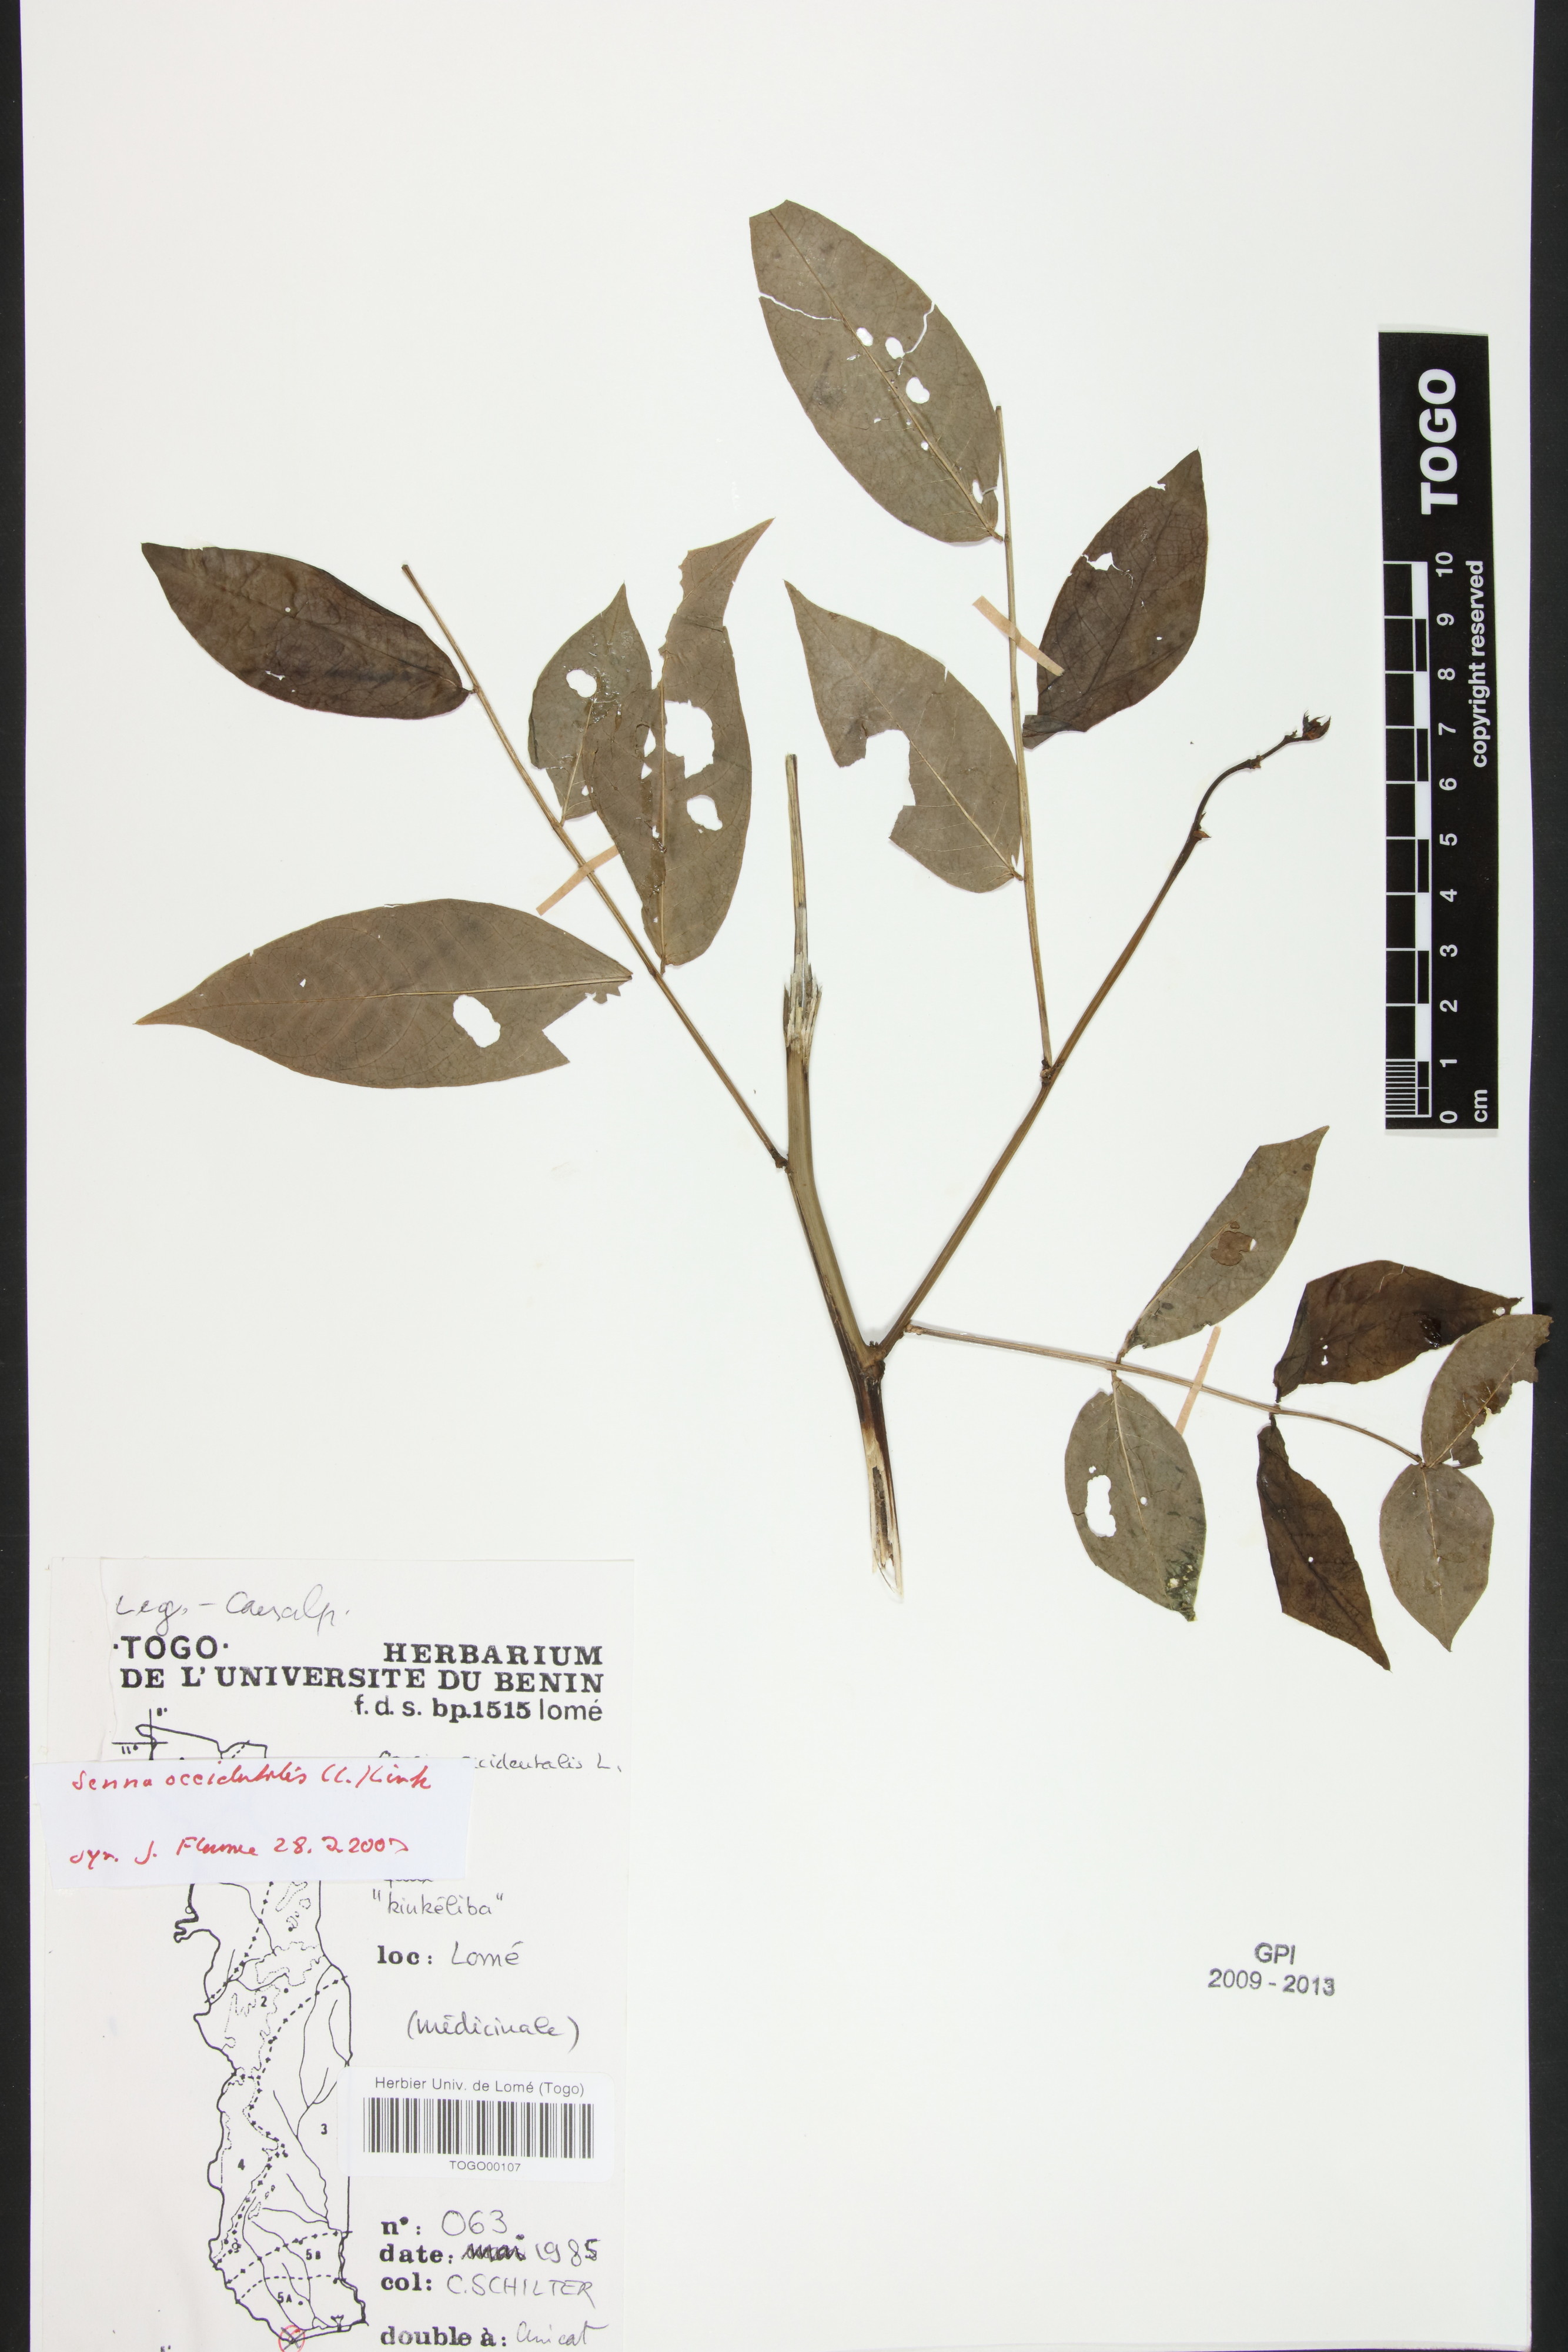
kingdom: Plantae
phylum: Tracheophyta
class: Magnoliopsida
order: Fabales
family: Fabaceae
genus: Senna
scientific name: Senna occidentalis
